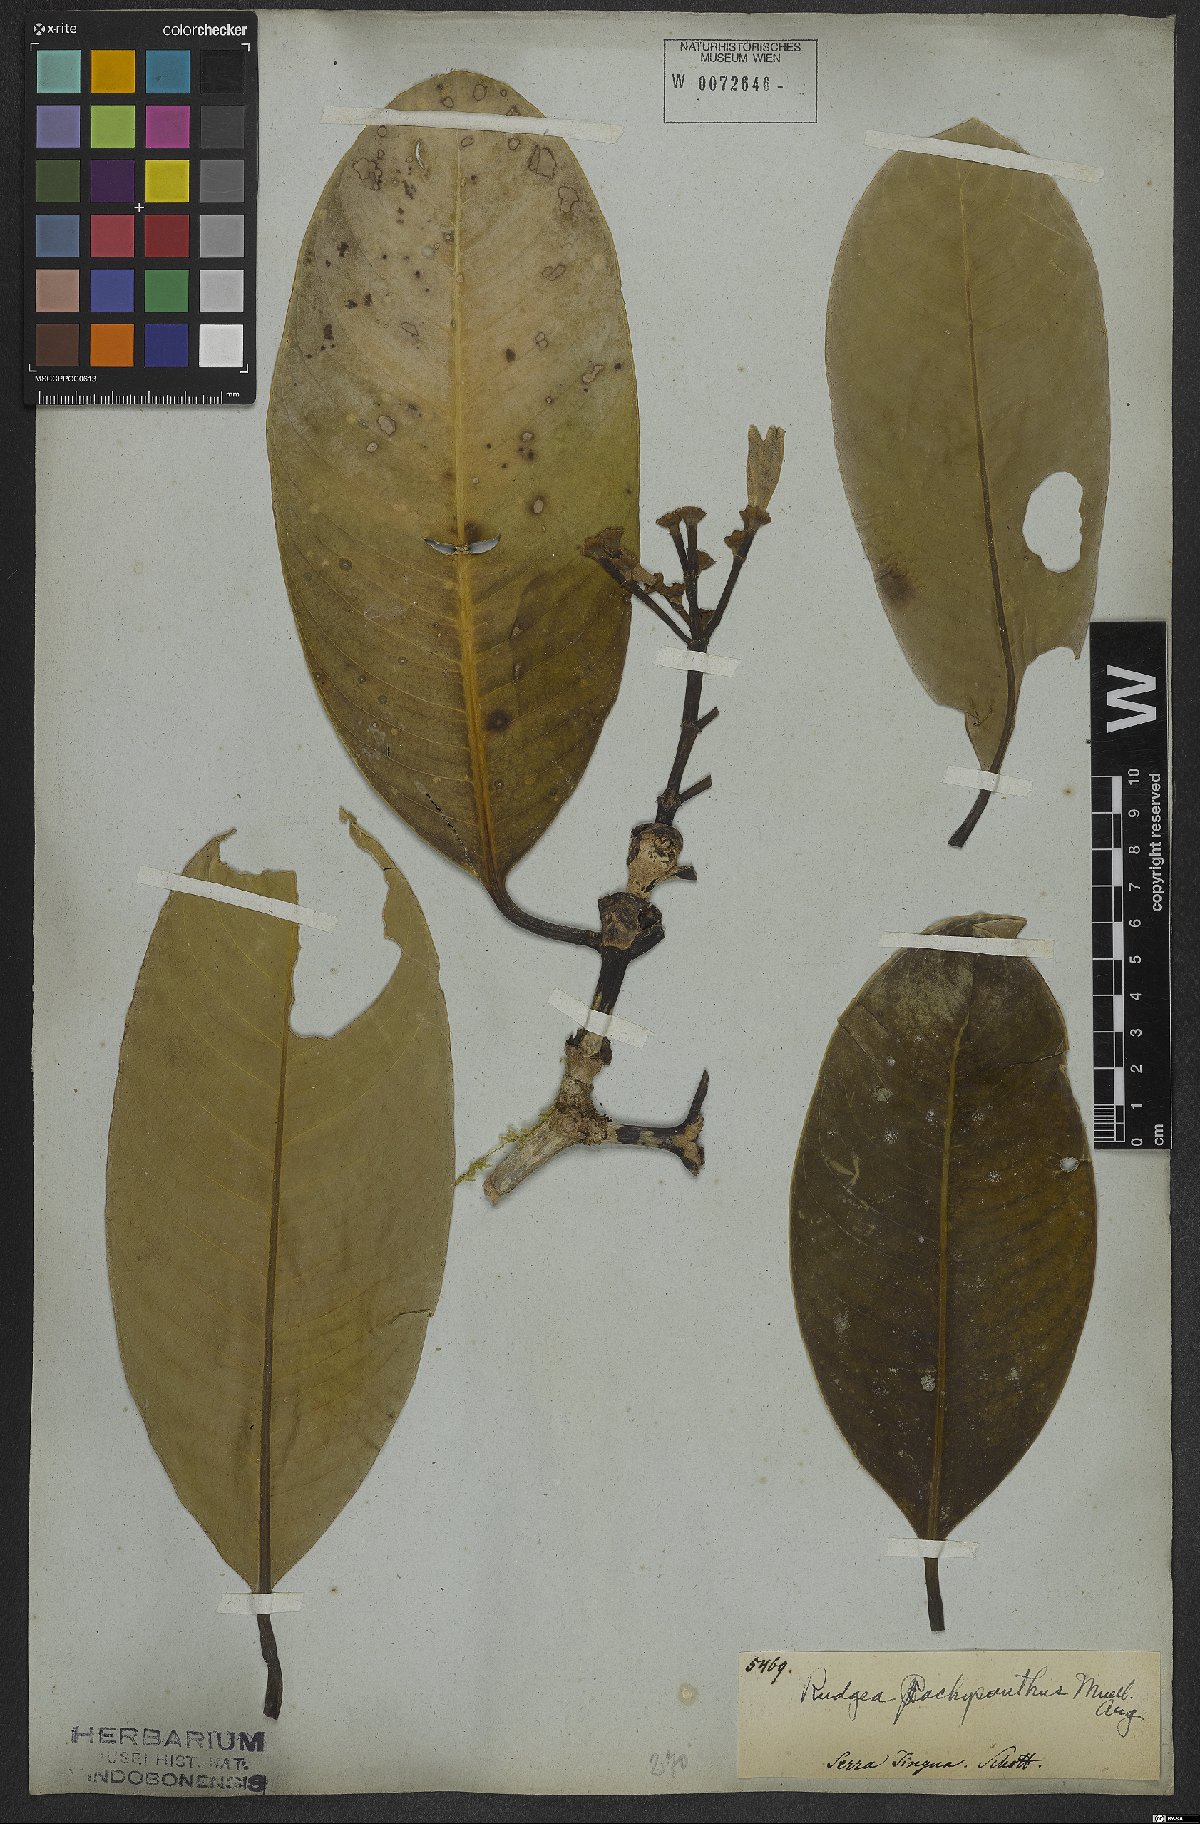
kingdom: Plantae
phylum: Tracheophyta
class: Magnoliopsida
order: Gentianales
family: Rubiaceae
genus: Rudgea
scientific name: Rudgea vellerea
